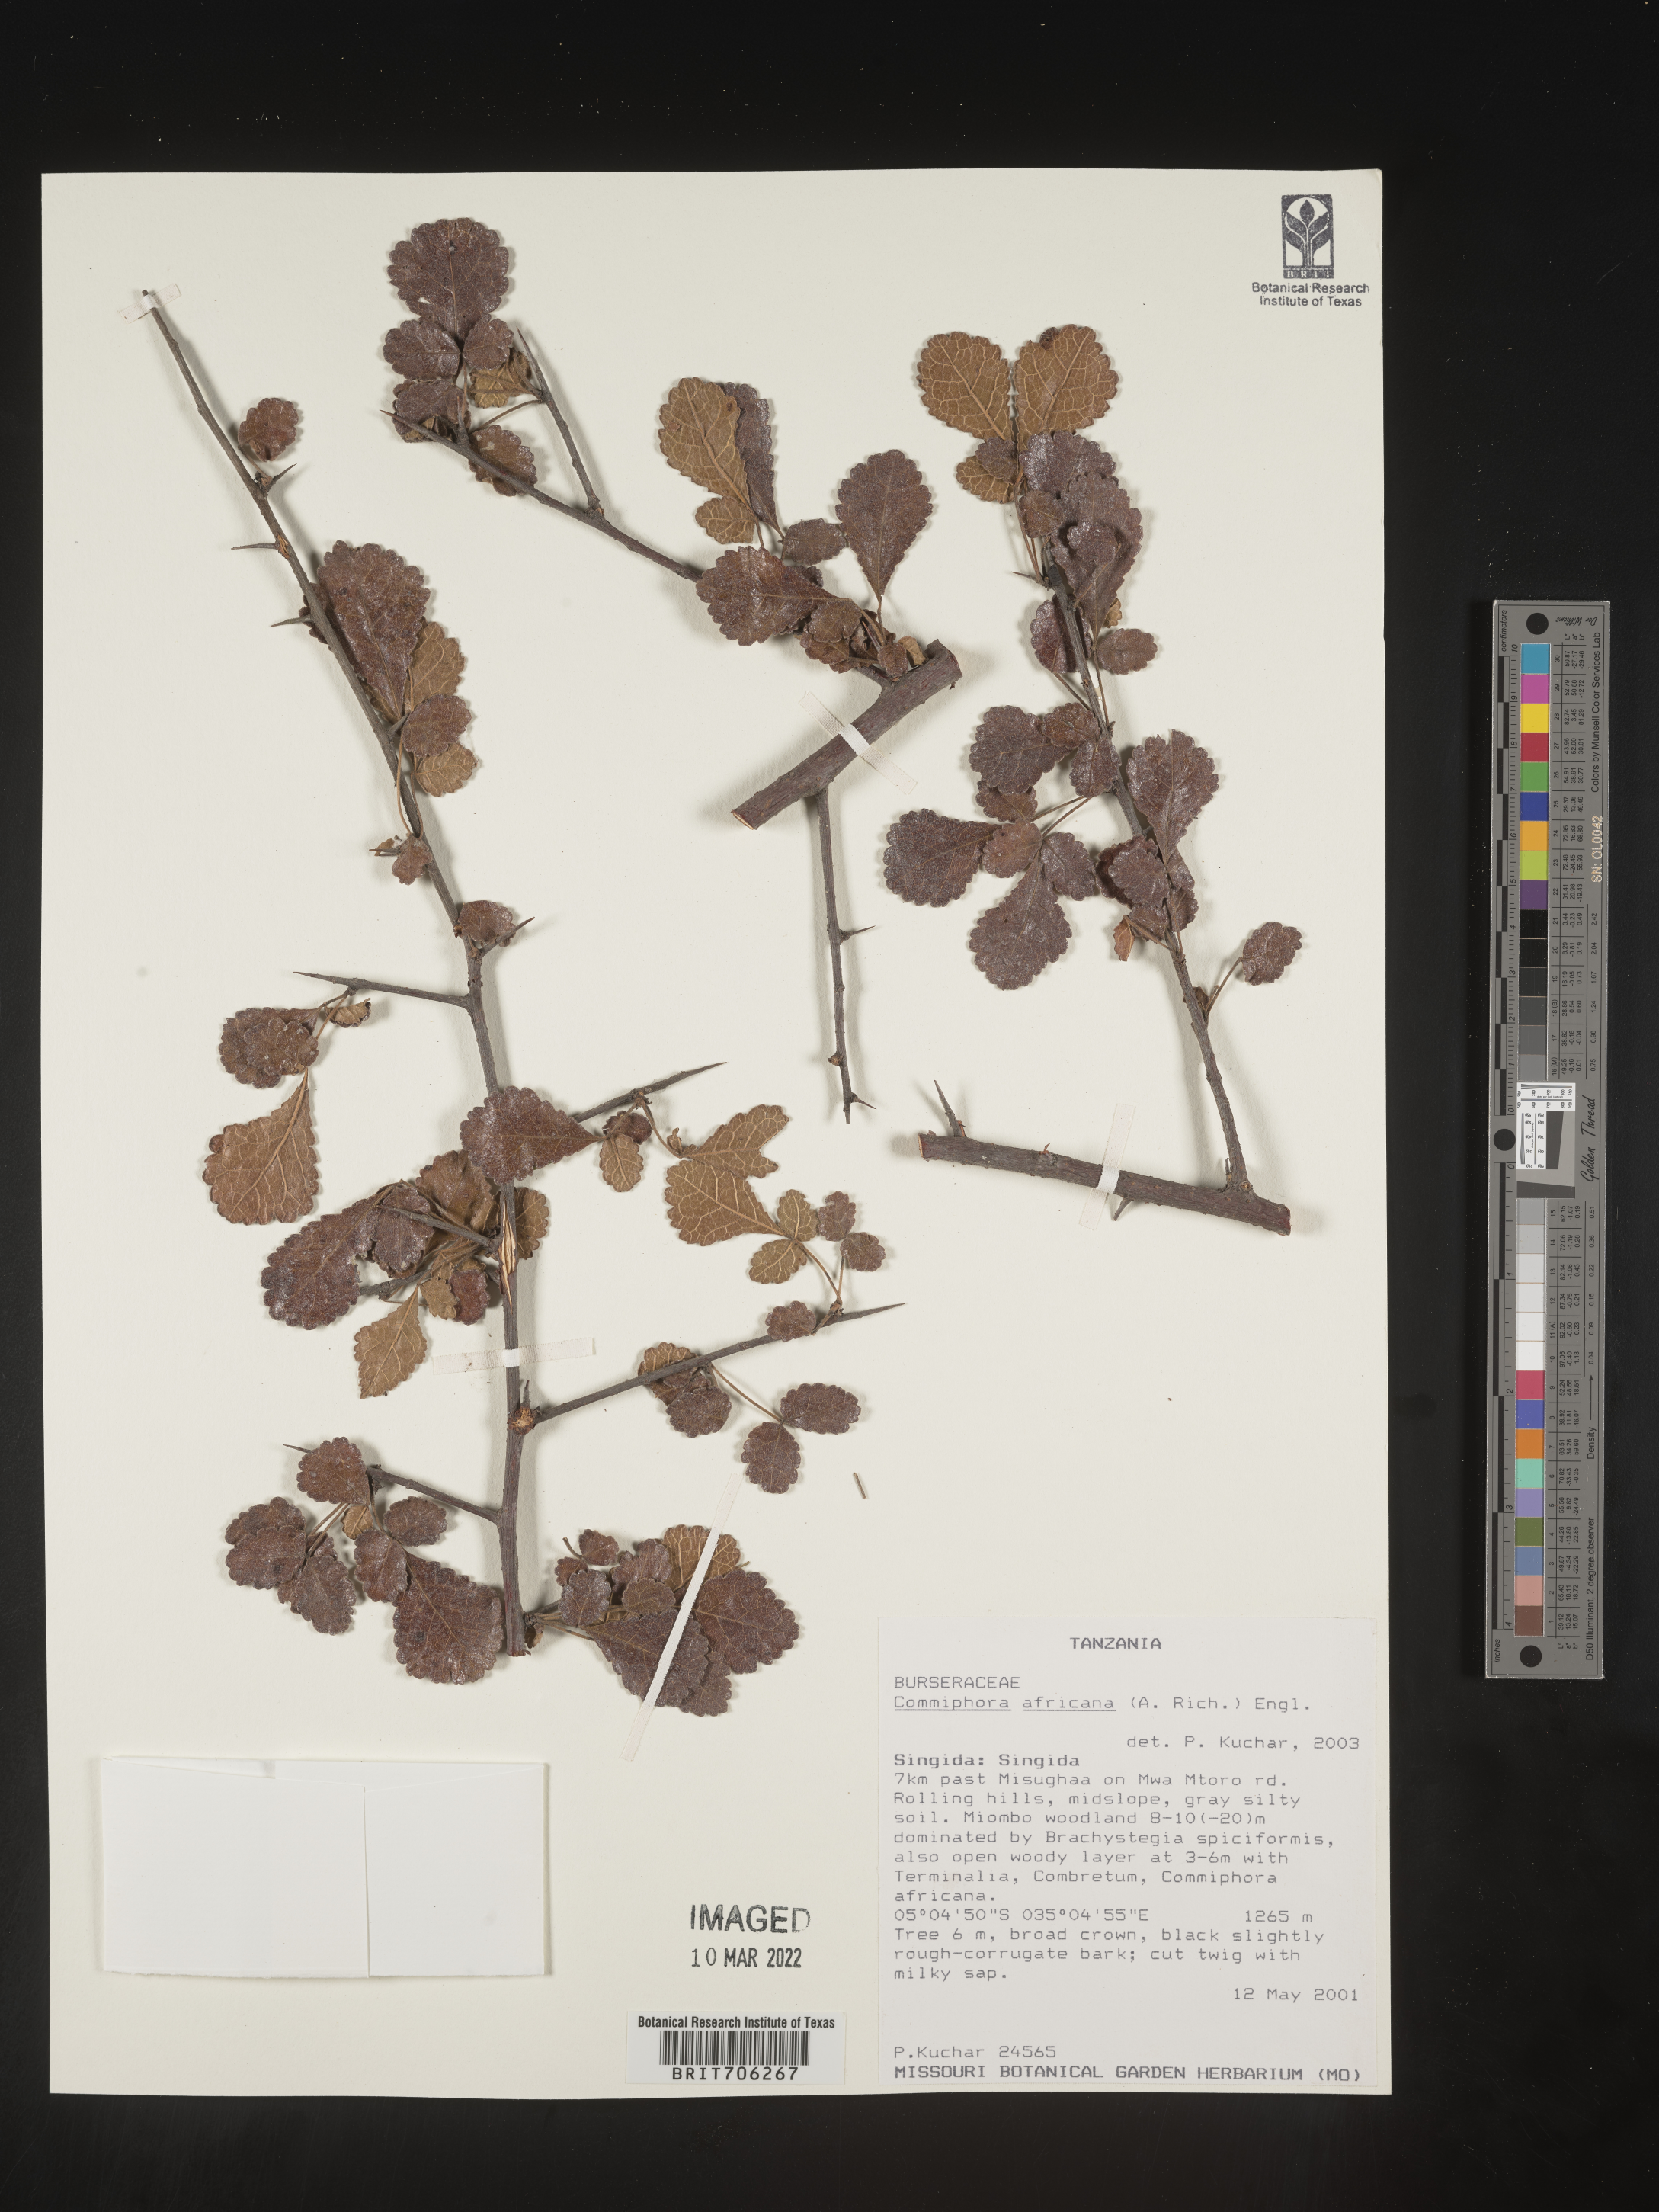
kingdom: Plantae
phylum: Tracheophyta
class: Magnoliopsida
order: Sapindales
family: Burseraceae
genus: Commiphora
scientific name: Commiphora
